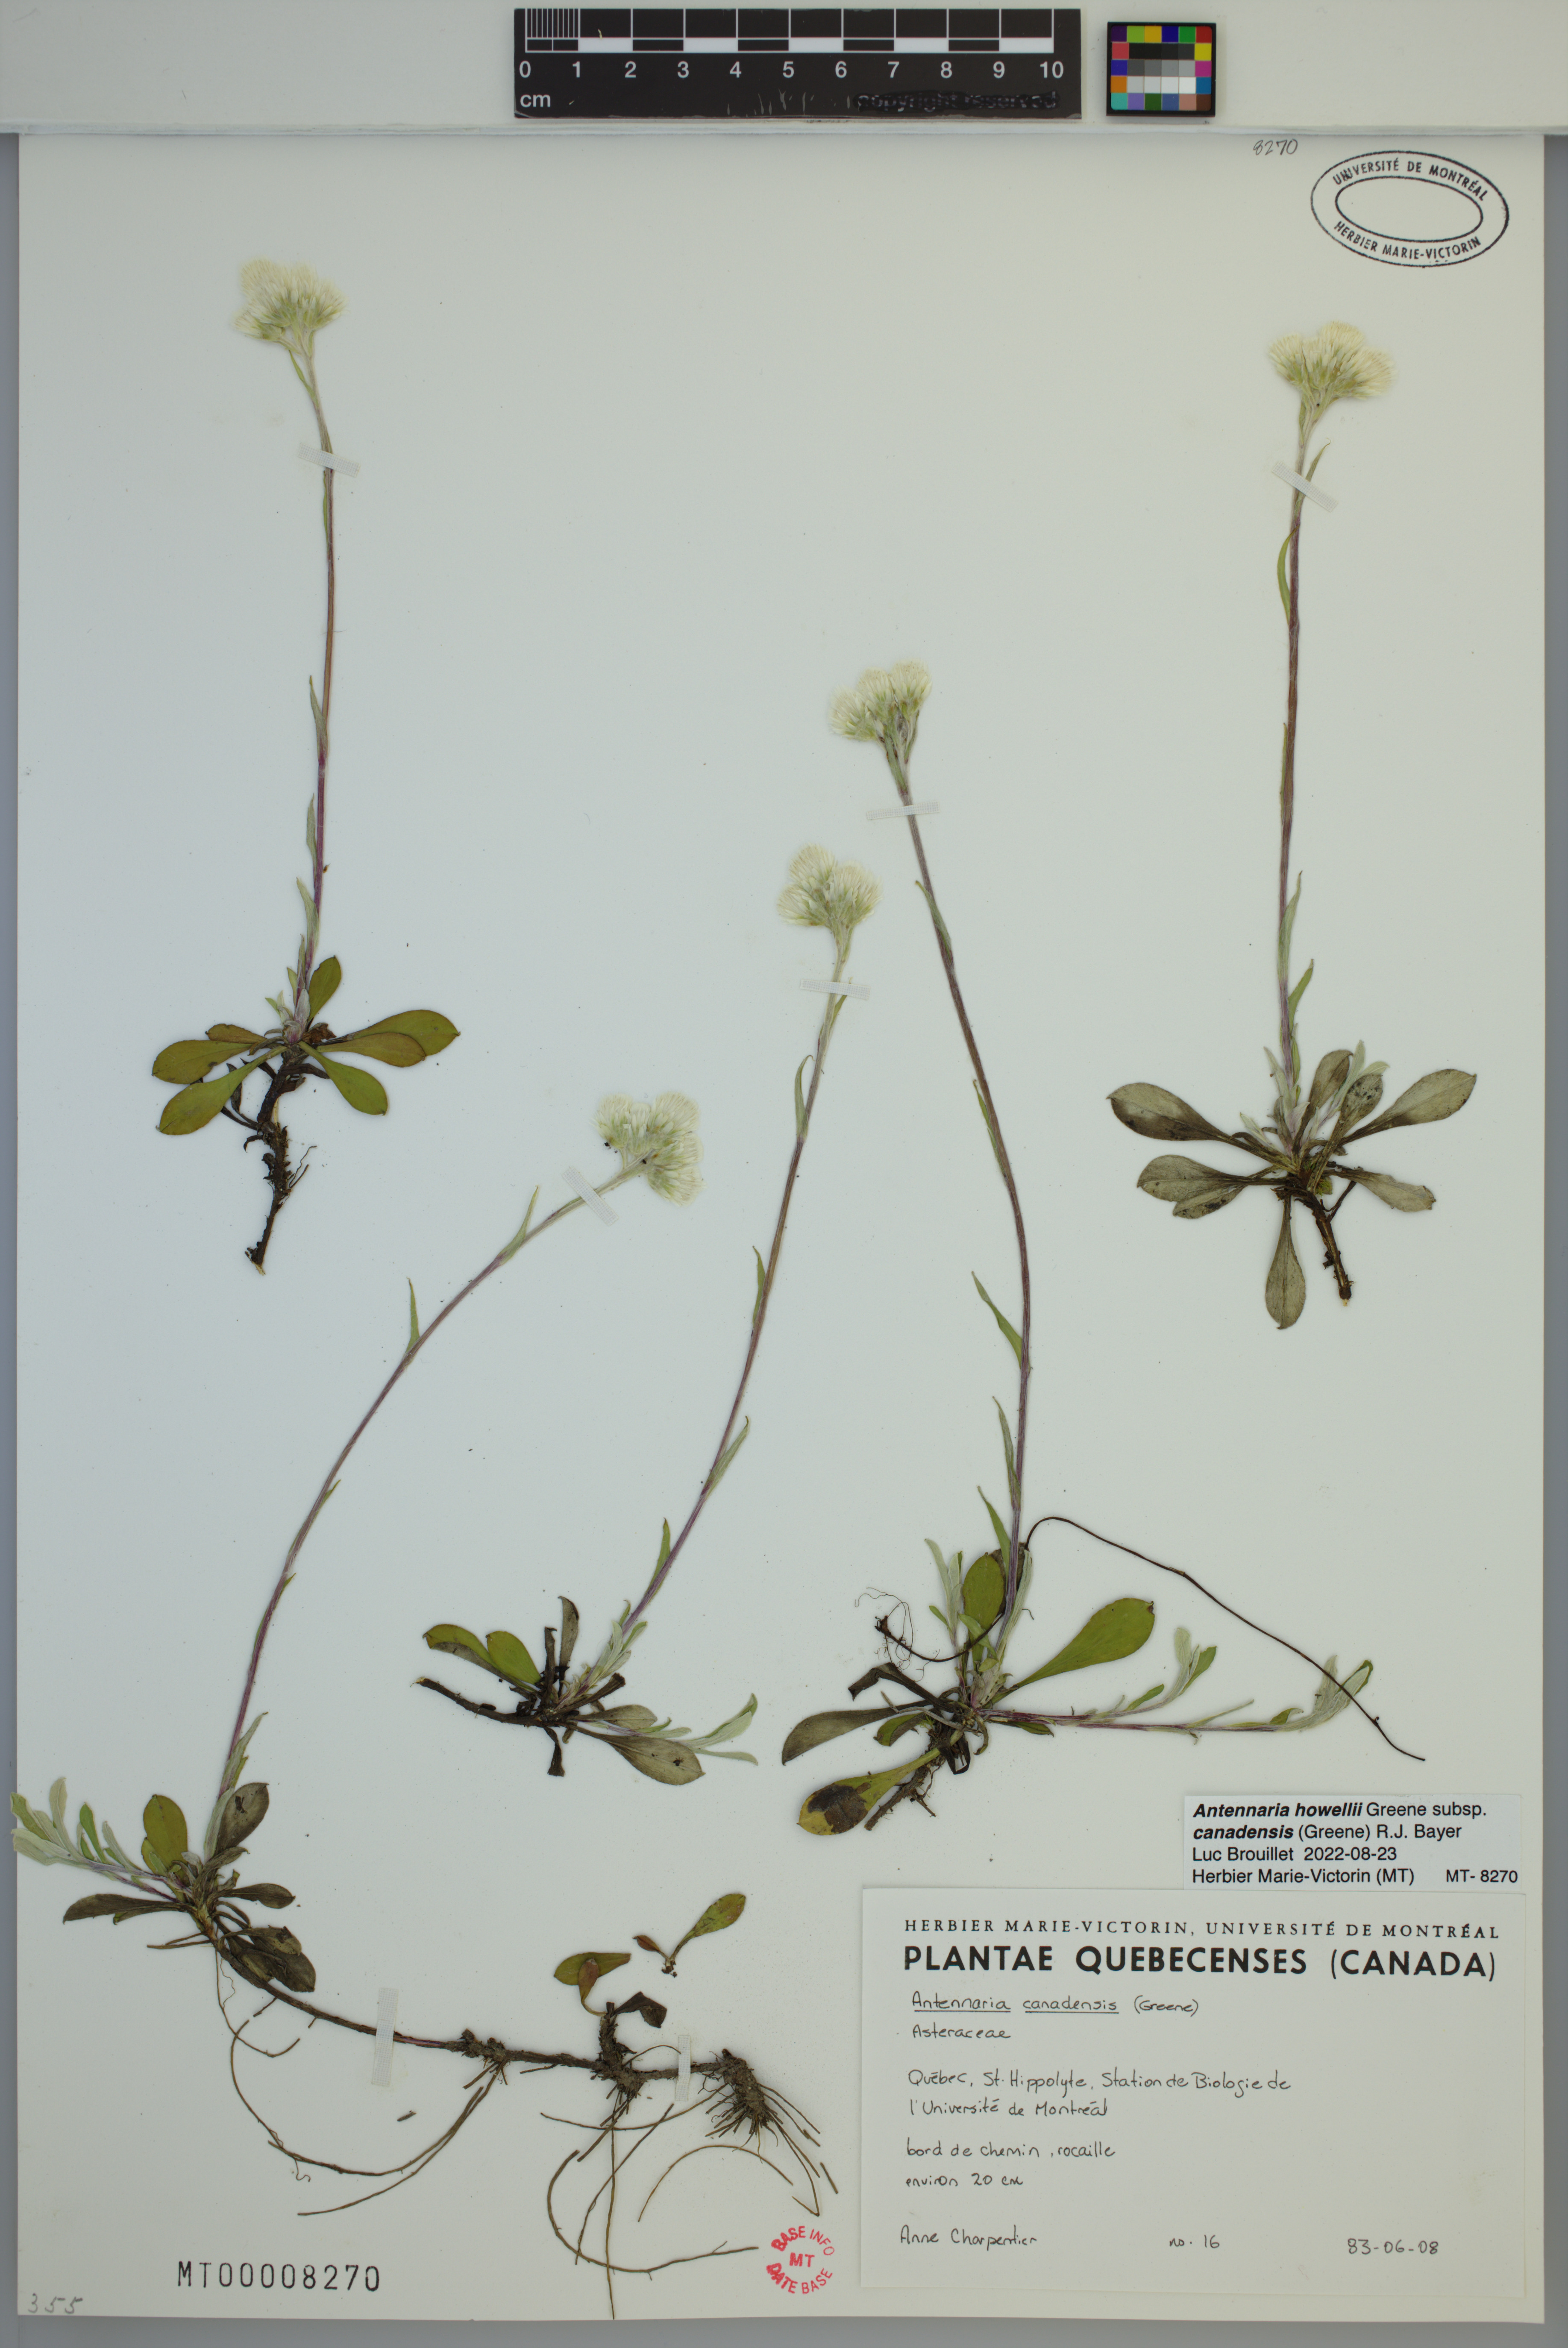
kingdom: Plantae
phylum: Tracheophyta
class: Magnoliopsida
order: Asterales
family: Asteraceae
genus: Antennaria
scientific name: Antennaria howellii
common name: Howell's pussytoes
